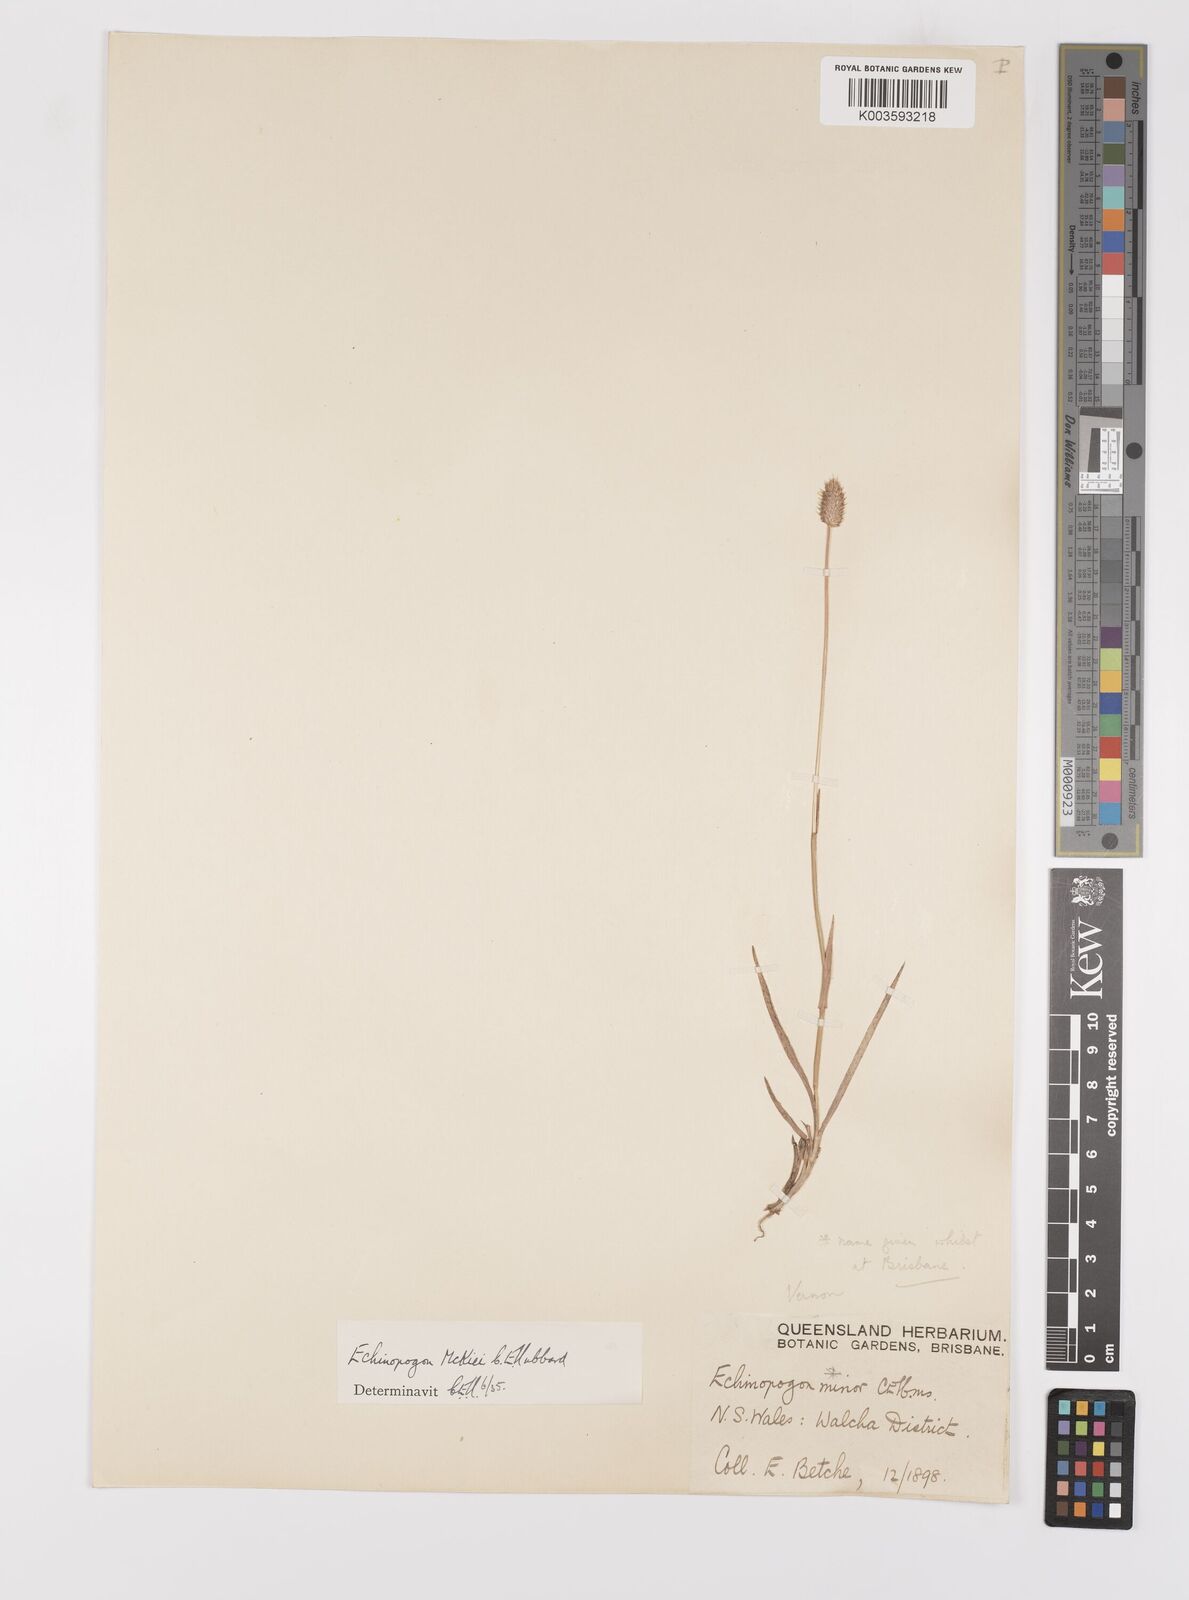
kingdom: Plantae
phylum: Tracheophyta
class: Liliopsida
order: Poales
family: Poaceae
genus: Echinopogon
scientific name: Echinopogon mckiei
